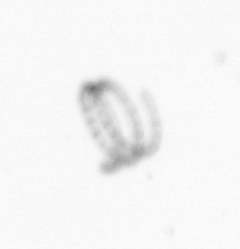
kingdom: Chromista
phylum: Ochrophyta
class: Bacillariophyceae
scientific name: Bacillariophyceae
